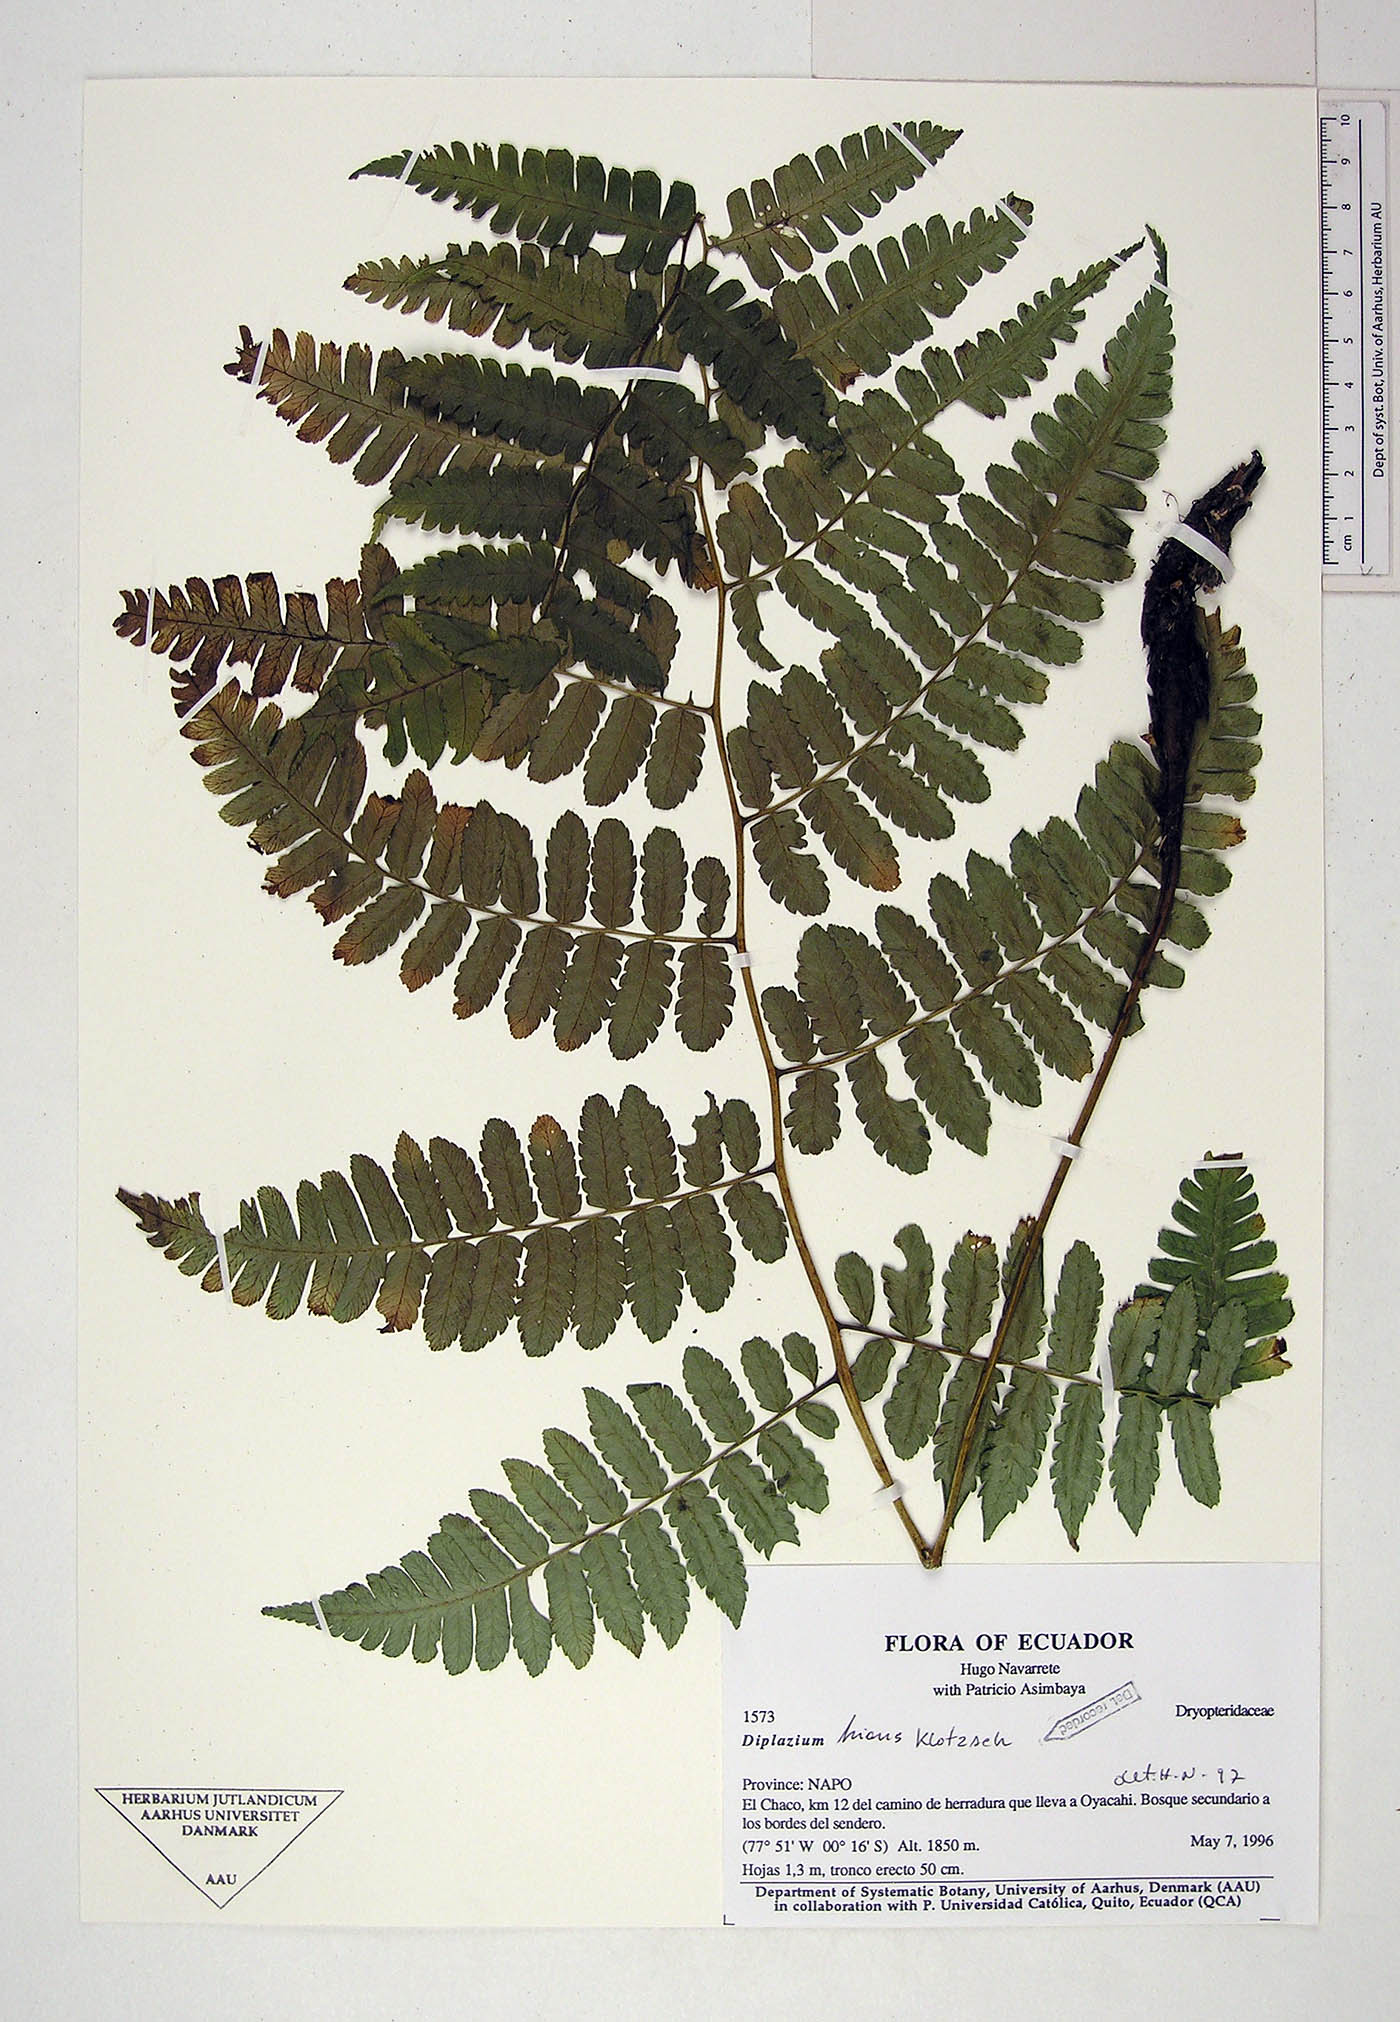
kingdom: Plantae
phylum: Tracheophyta
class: Polypodiopsida
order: Polypodiales
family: Athyriaceae
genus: Diplazium
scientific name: Diplazium
